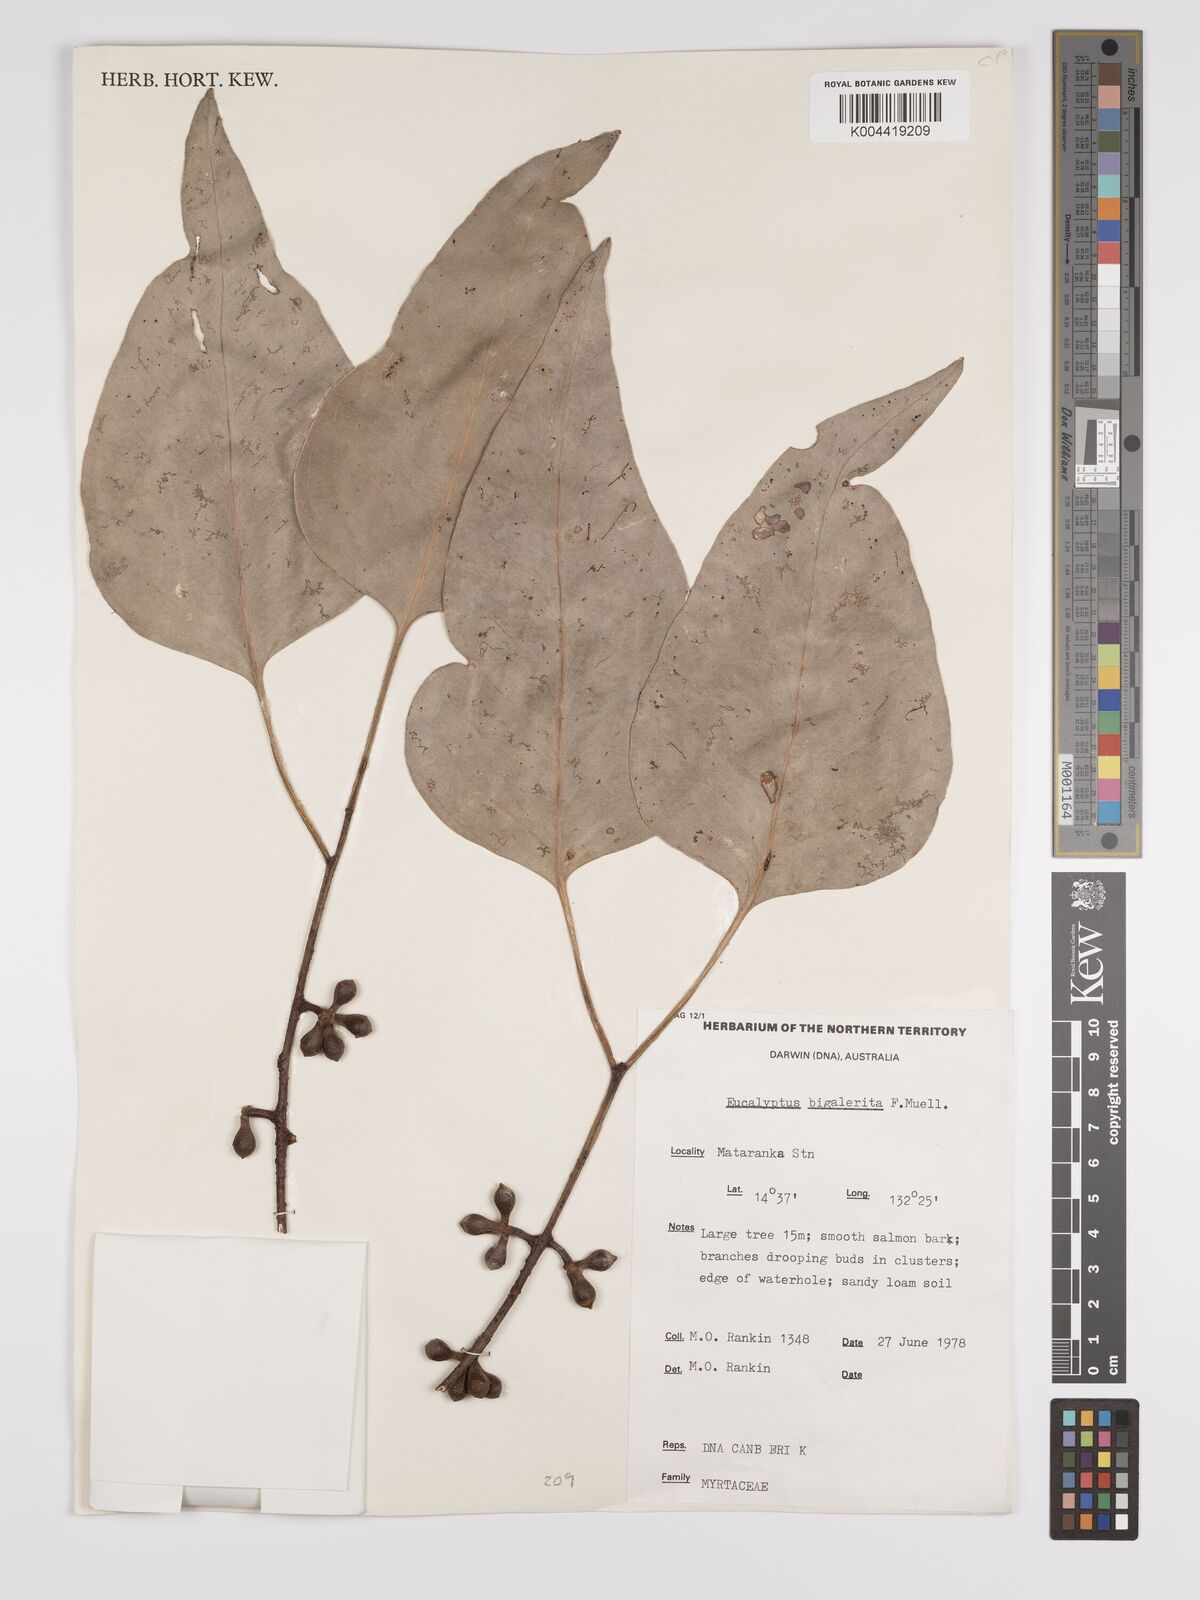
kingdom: Plantae
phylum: Tracheophyta
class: Magnoliopsida
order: Myrtales
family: Myrtaceae
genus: Eucalyptus
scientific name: Eucalyptus bigalerita
